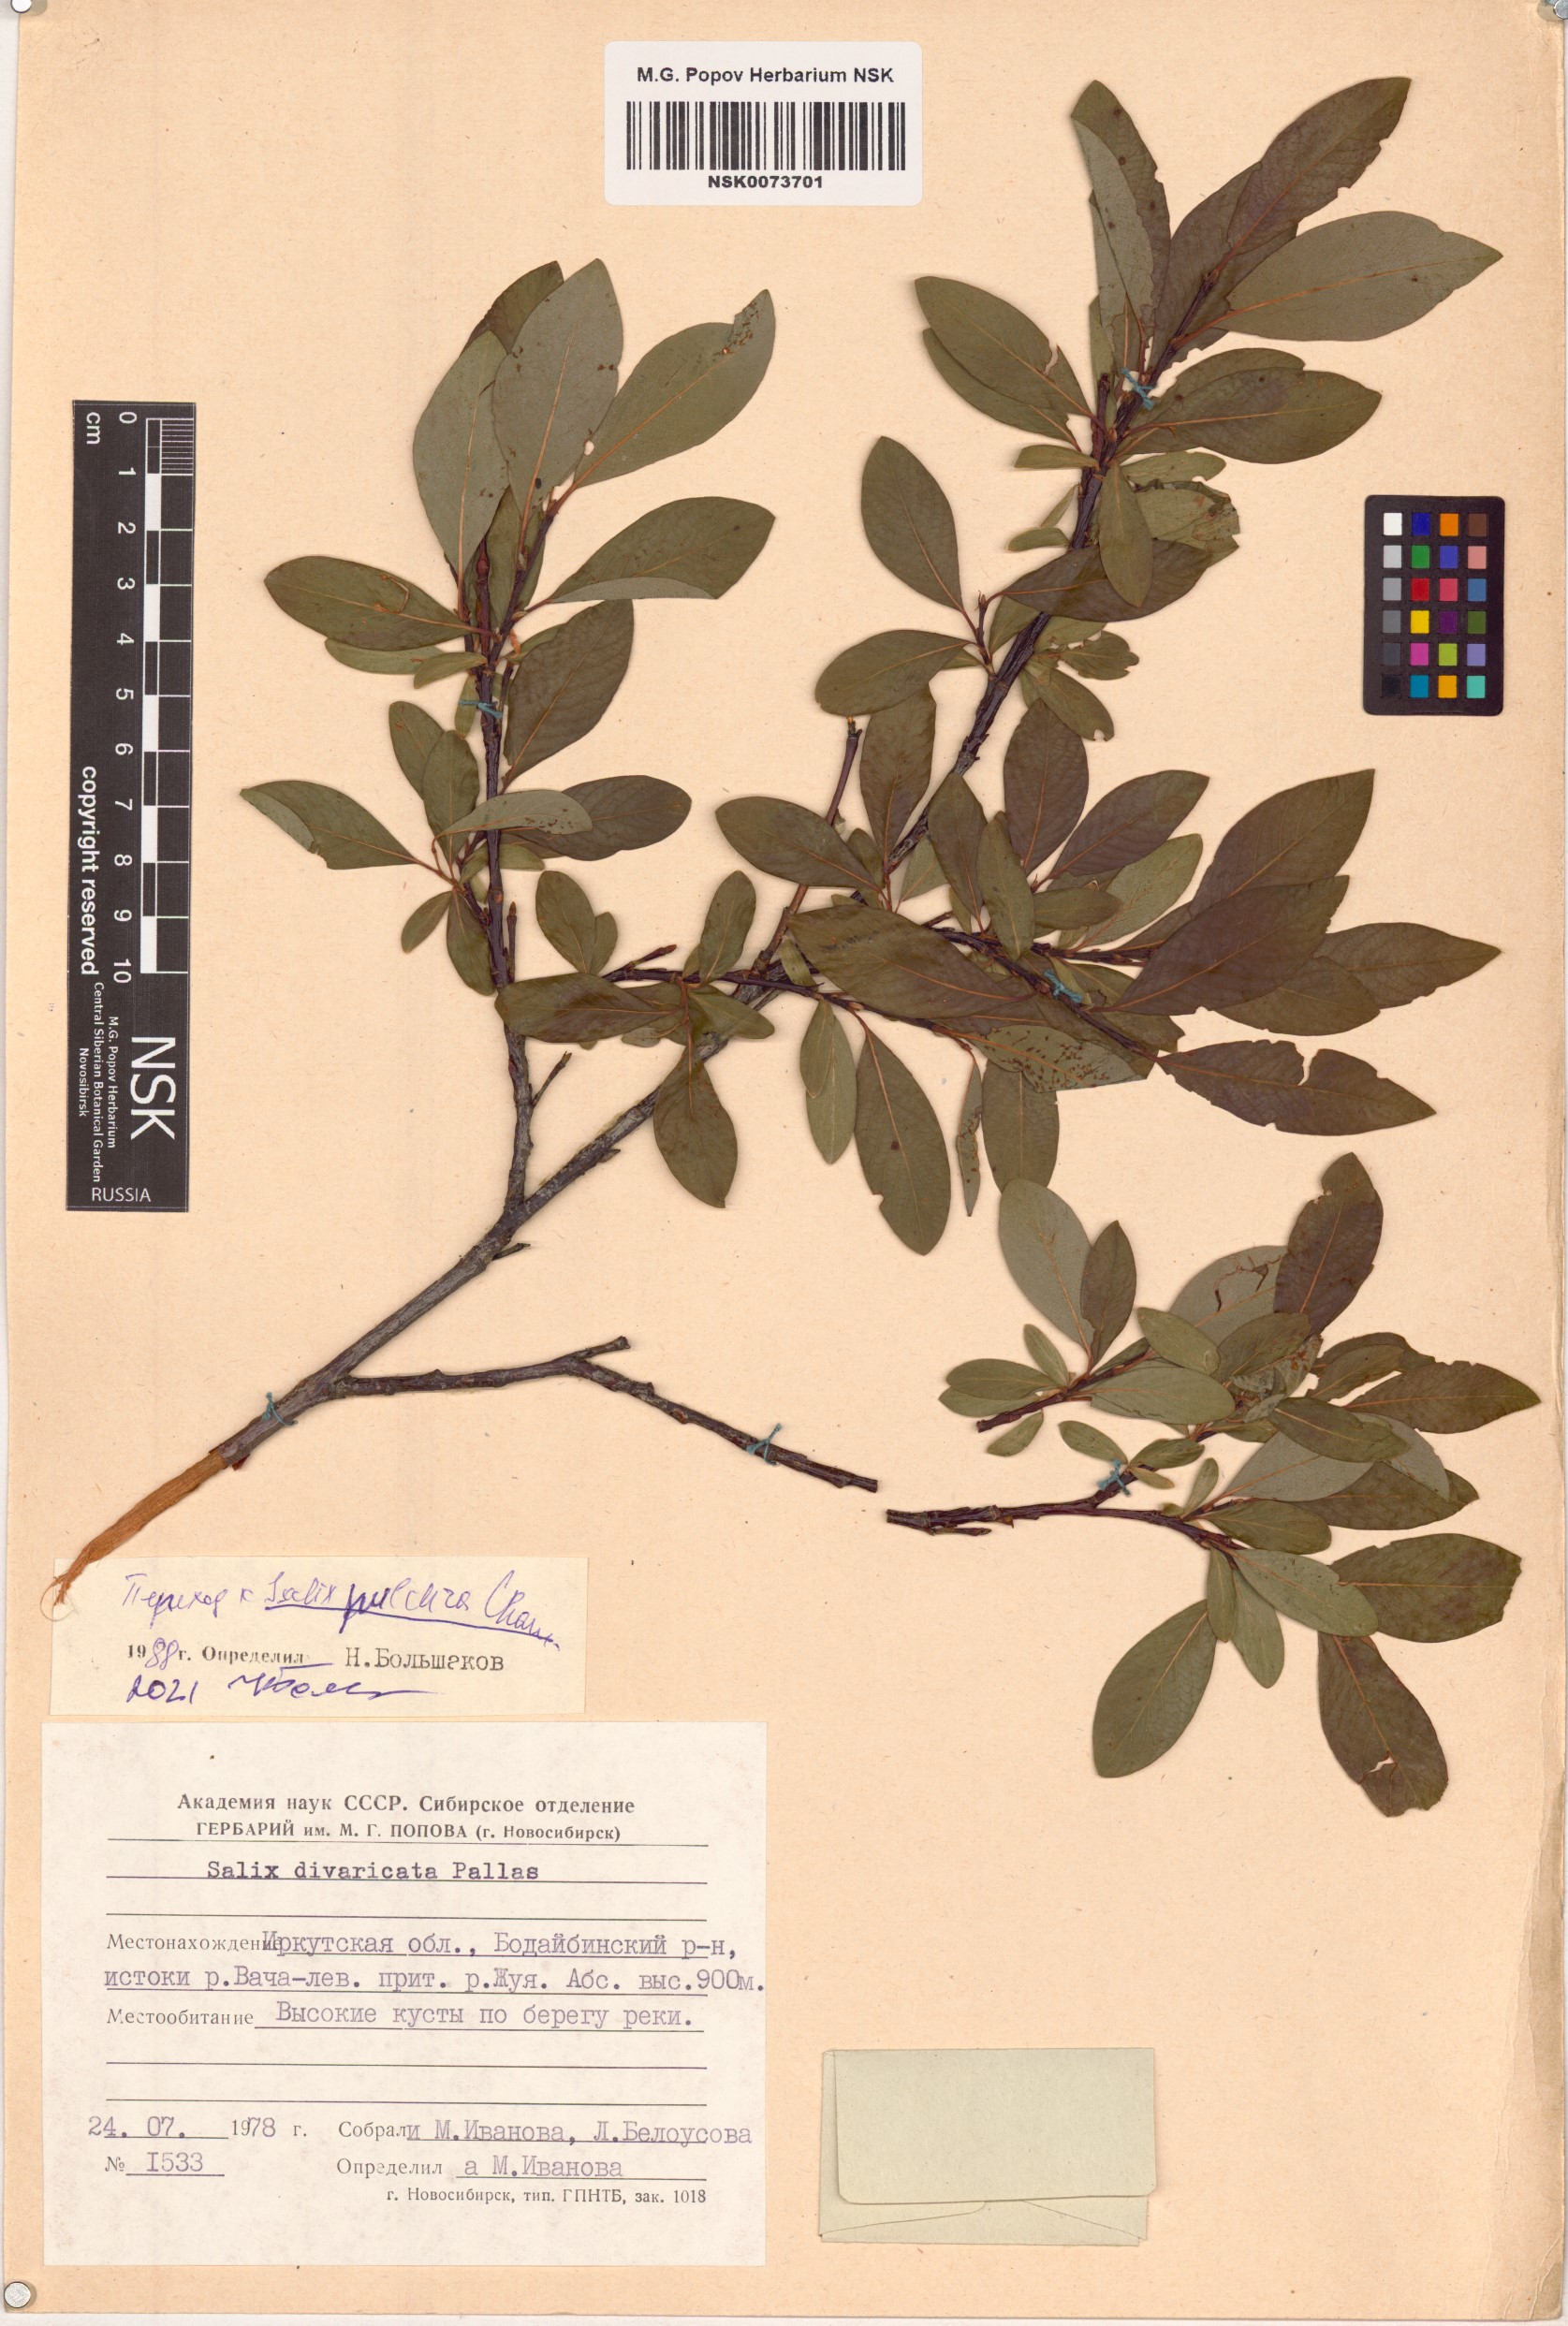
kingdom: Plantae
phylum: Tracheophyta
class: Magnoliopsida
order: Malpighiales
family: Salicaceae
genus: Salix
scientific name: Salix pulchra
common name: Diamond-leaved willow
